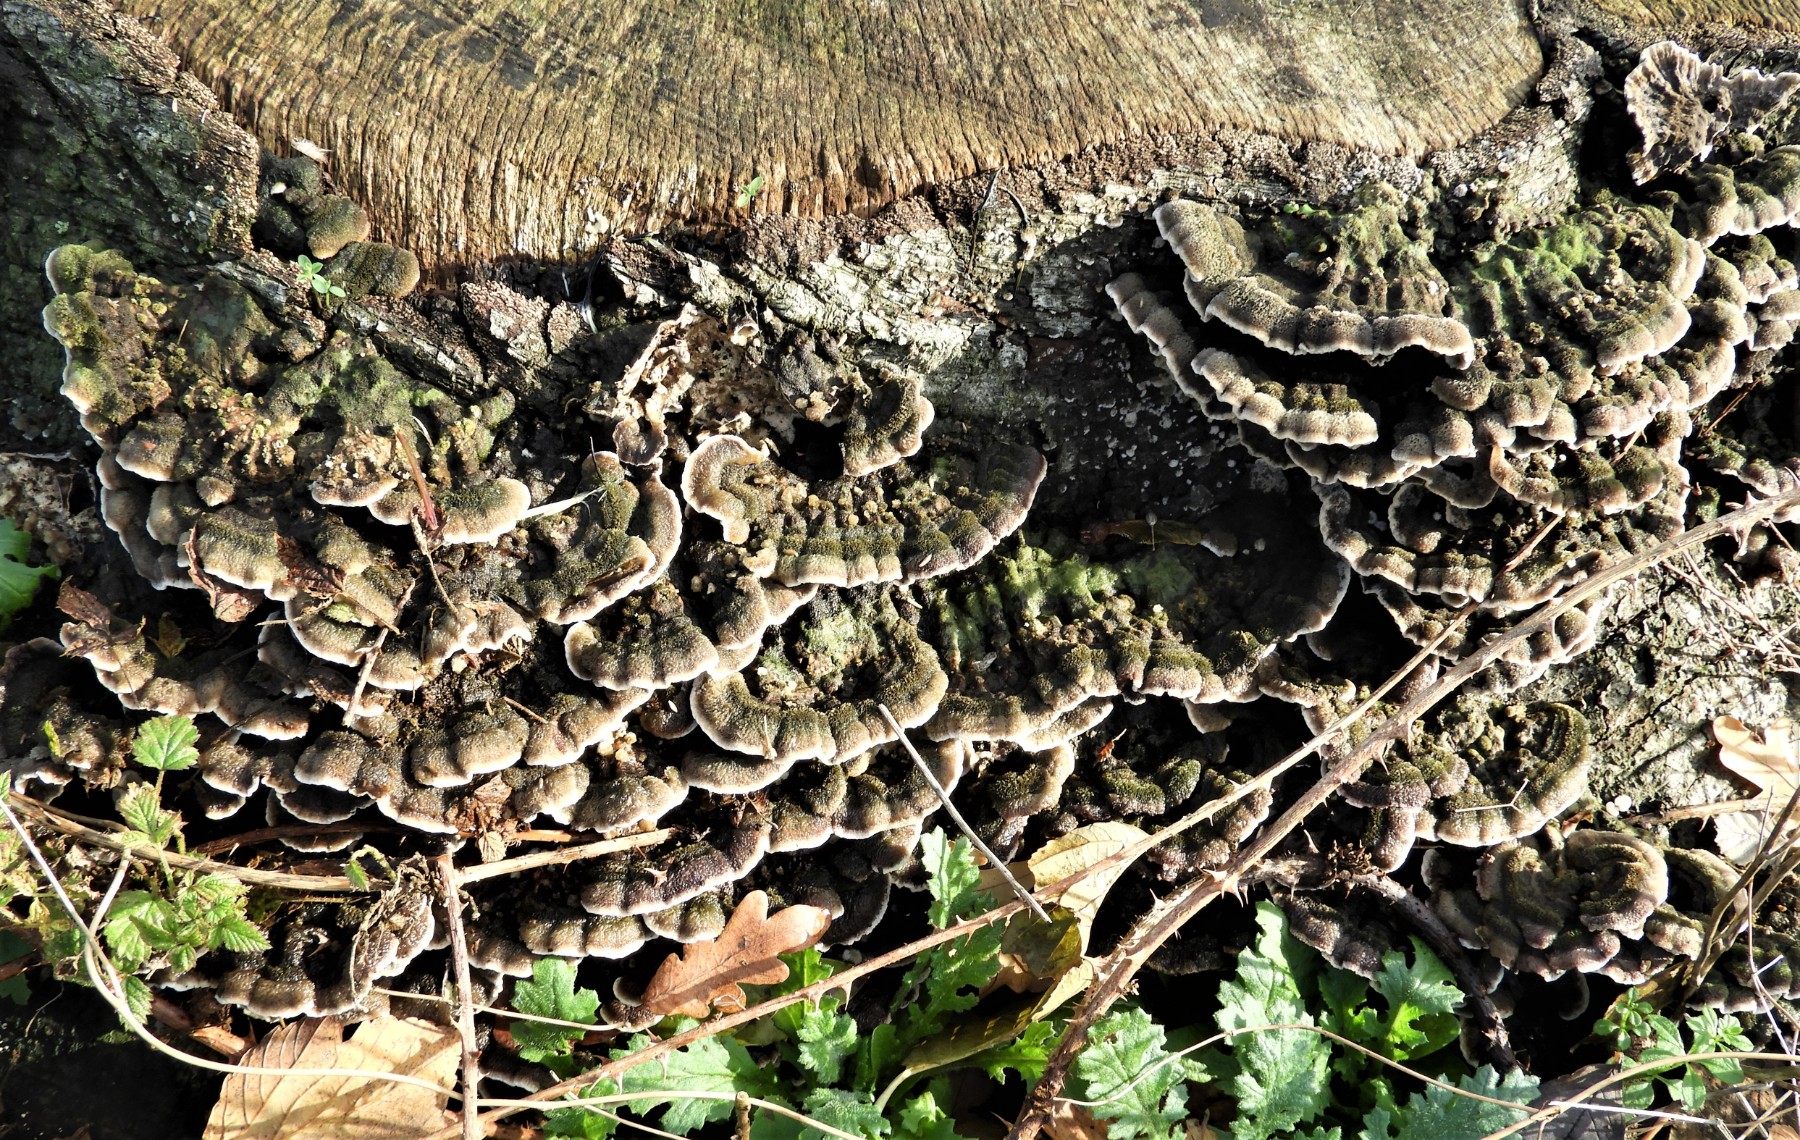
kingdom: Fungi
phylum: Basidiomycota
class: Agaricomycetes
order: Polyporales
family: Phanerochaetaceae
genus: Porostereum
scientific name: Porostereum spadiceum
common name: daddellædersvamp
